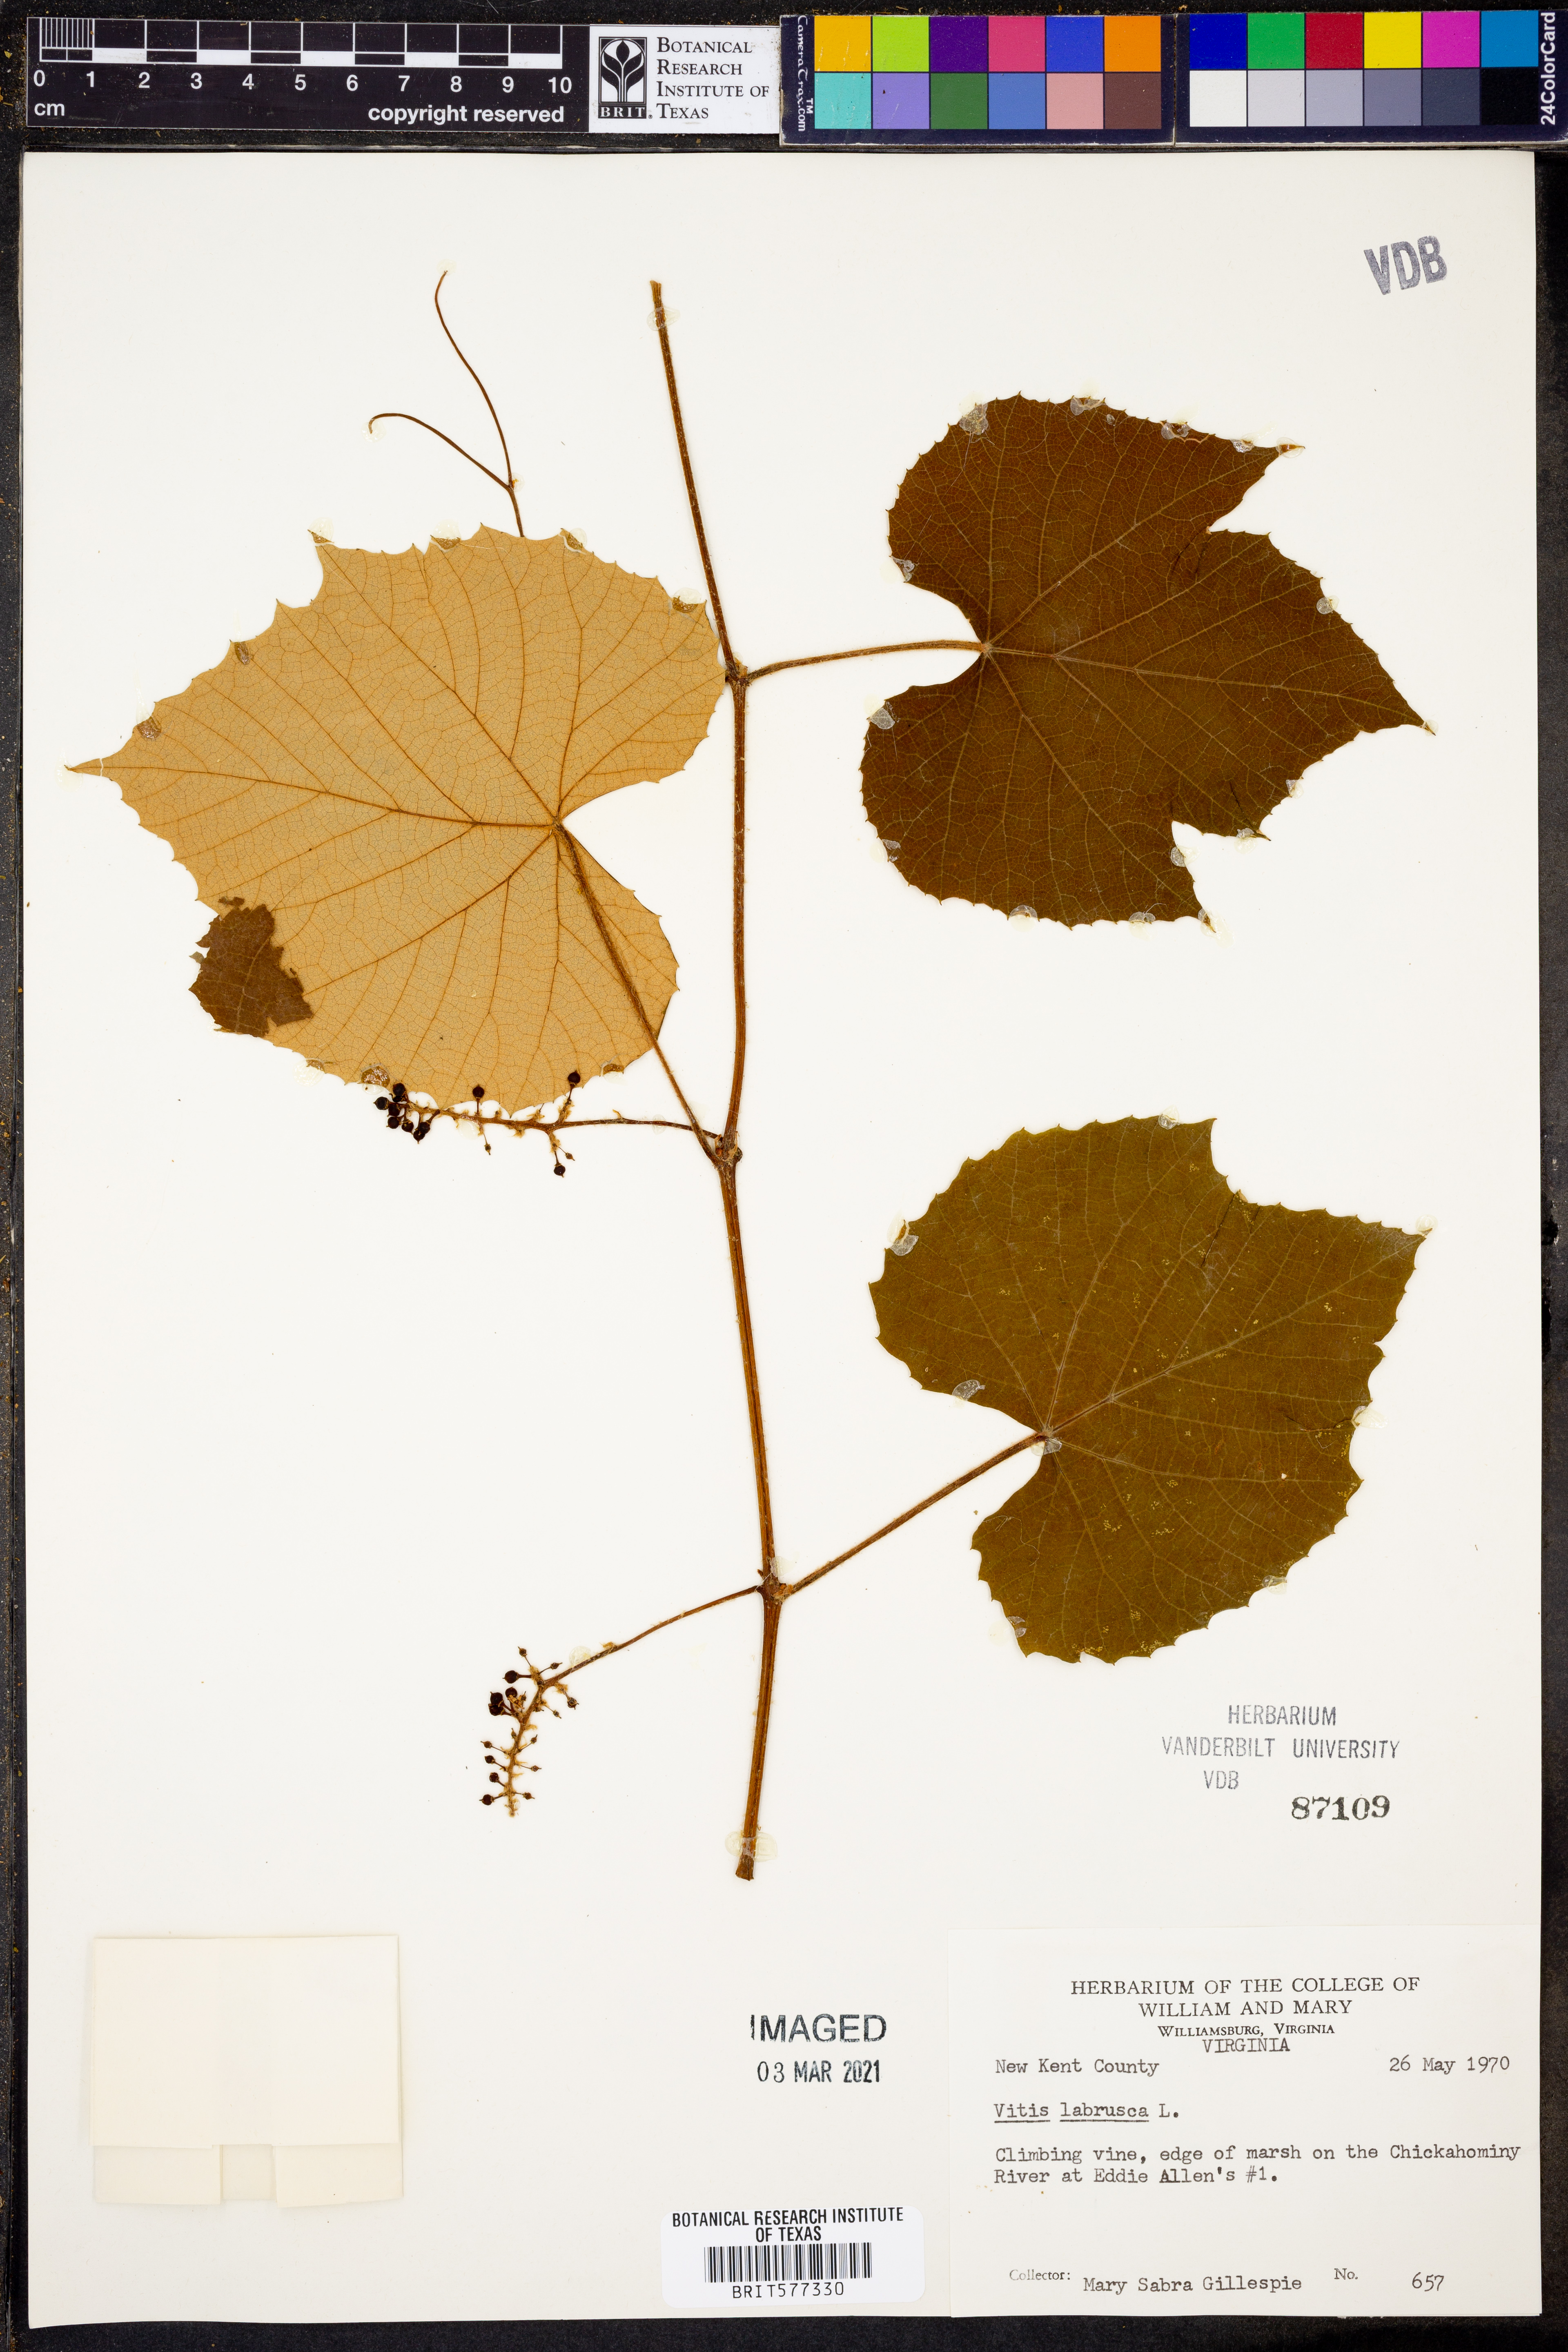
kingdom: Plantae
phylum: Tracheophyta
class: Magnoliopsida
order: Vitales
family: Vitaceae
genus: Vitis
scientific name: Vitis labrusca
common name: Concord grape
